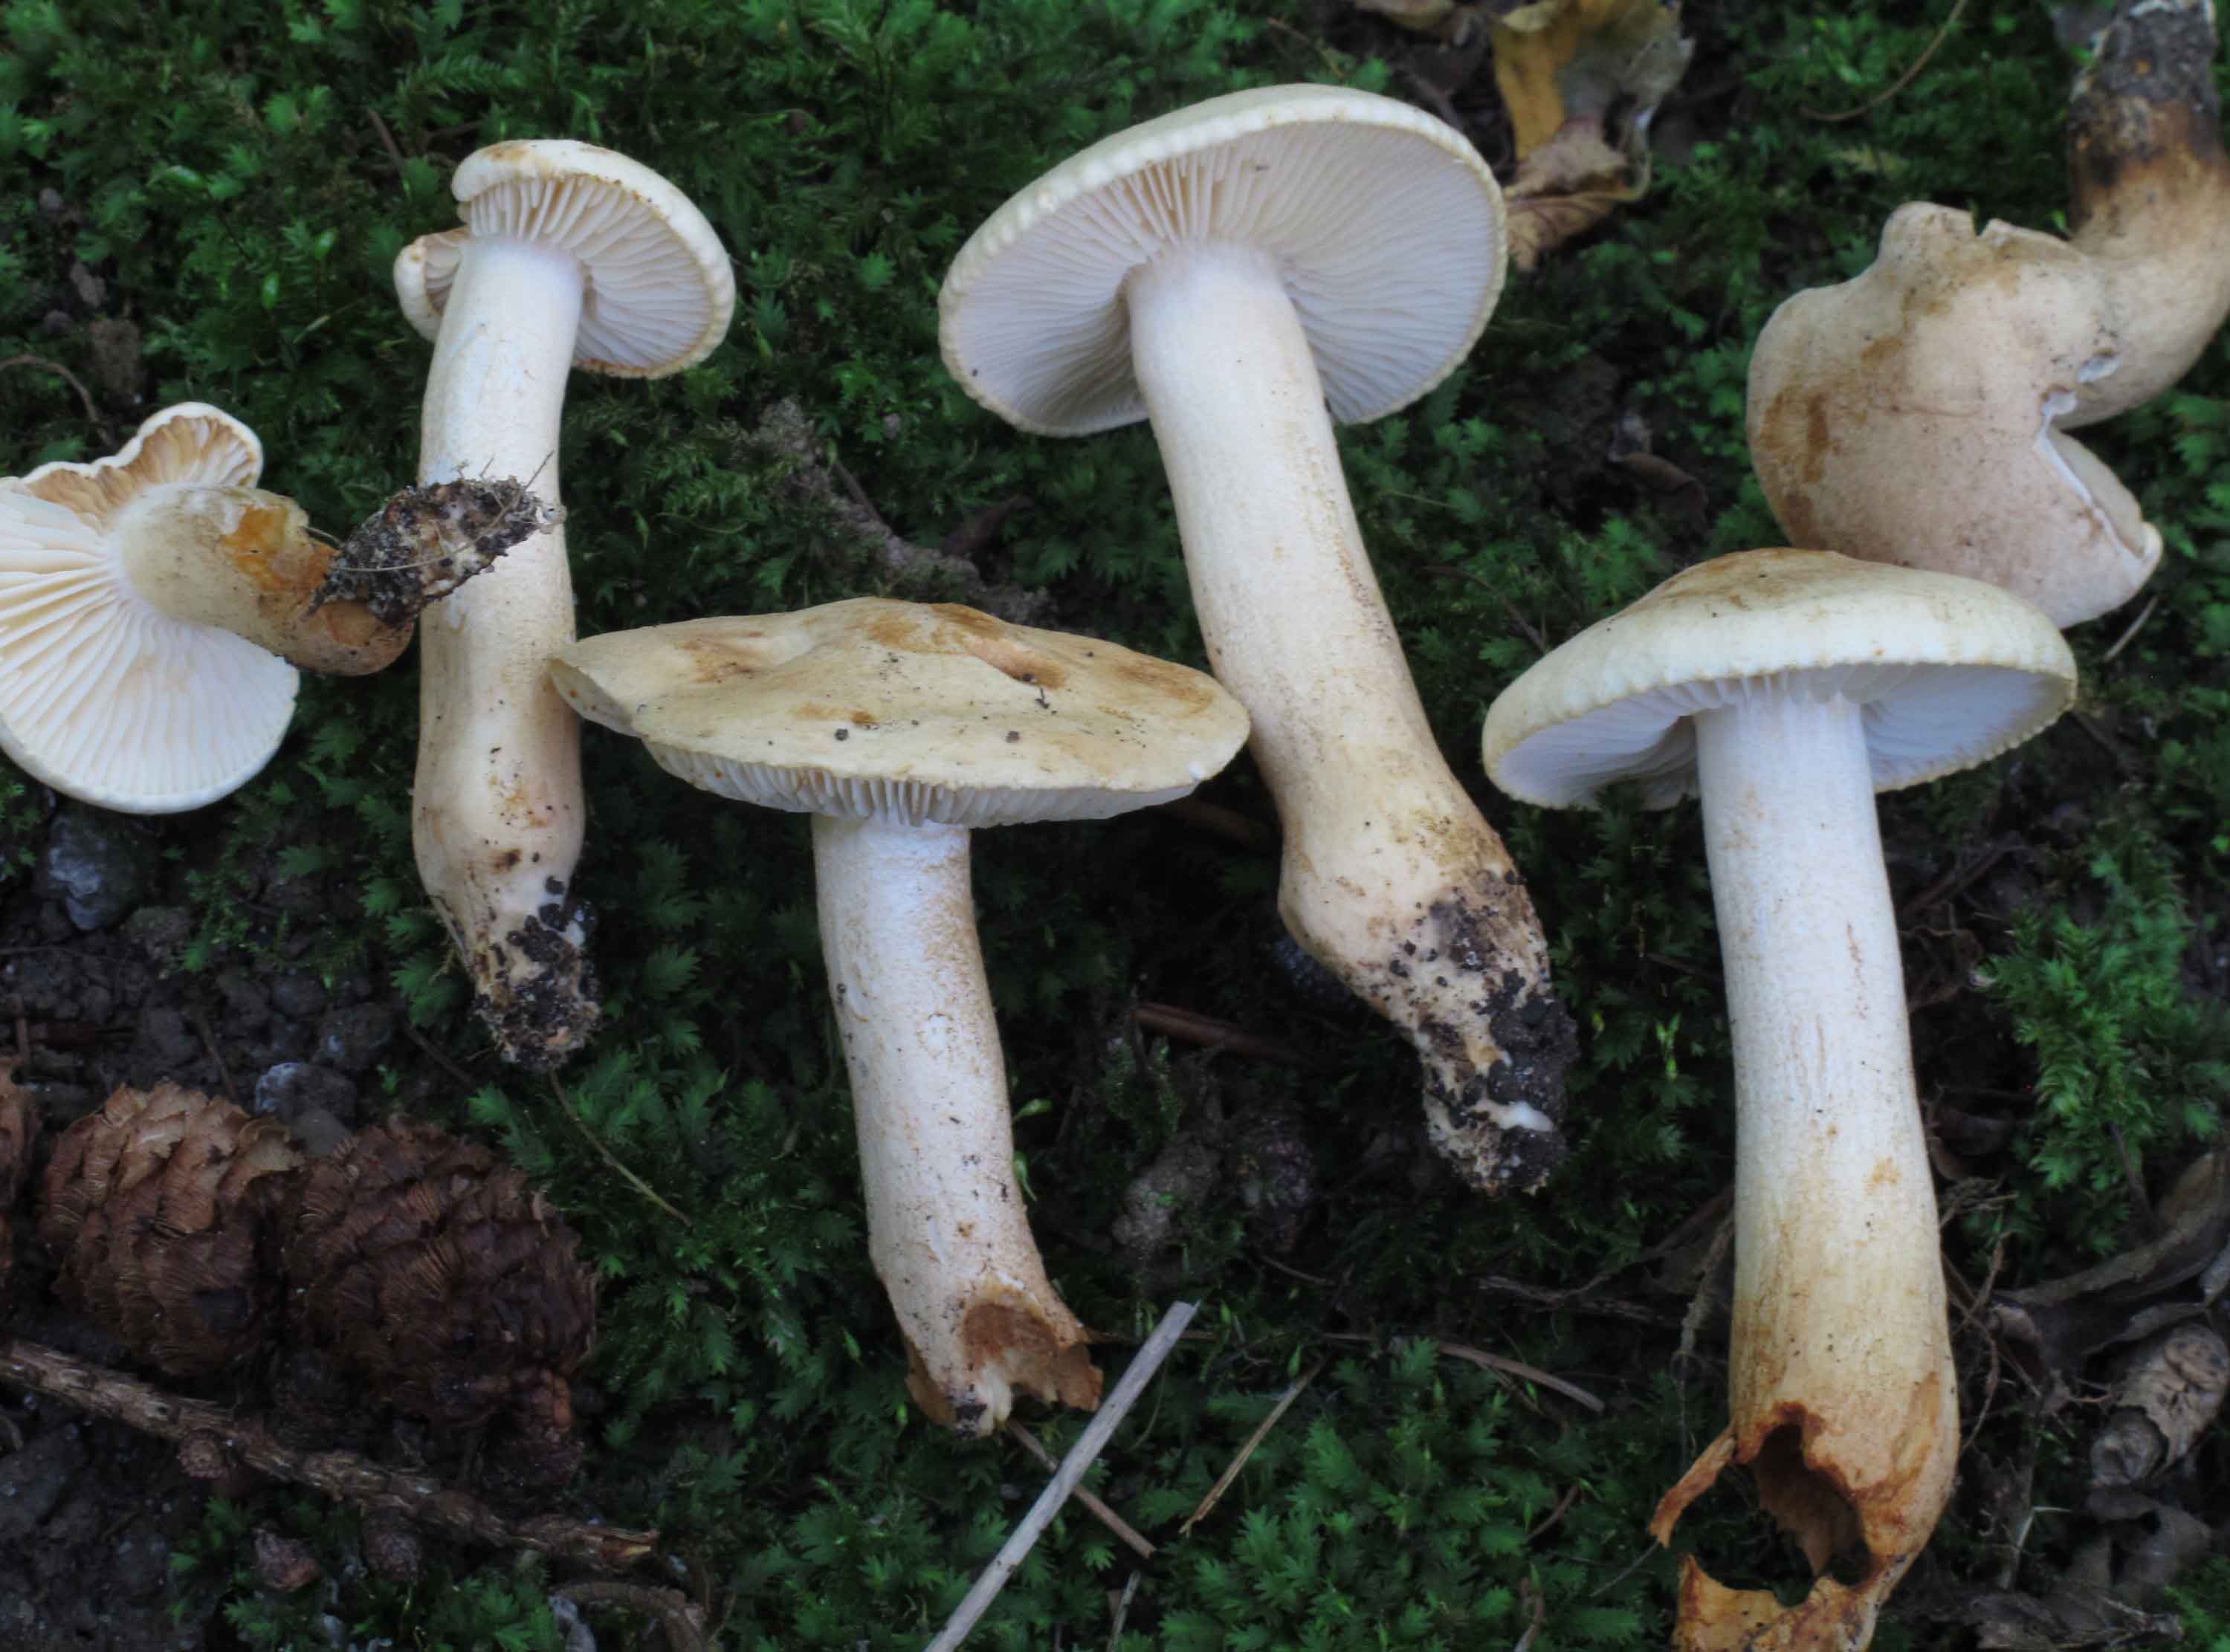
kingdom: Fungi
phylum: Basidiomycota
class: Agaricomycetes
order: Agaricales
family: Tricholomataceae
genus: Tricholoma
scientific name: Tricholoma psammopus
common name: grynstokket ridderhat
